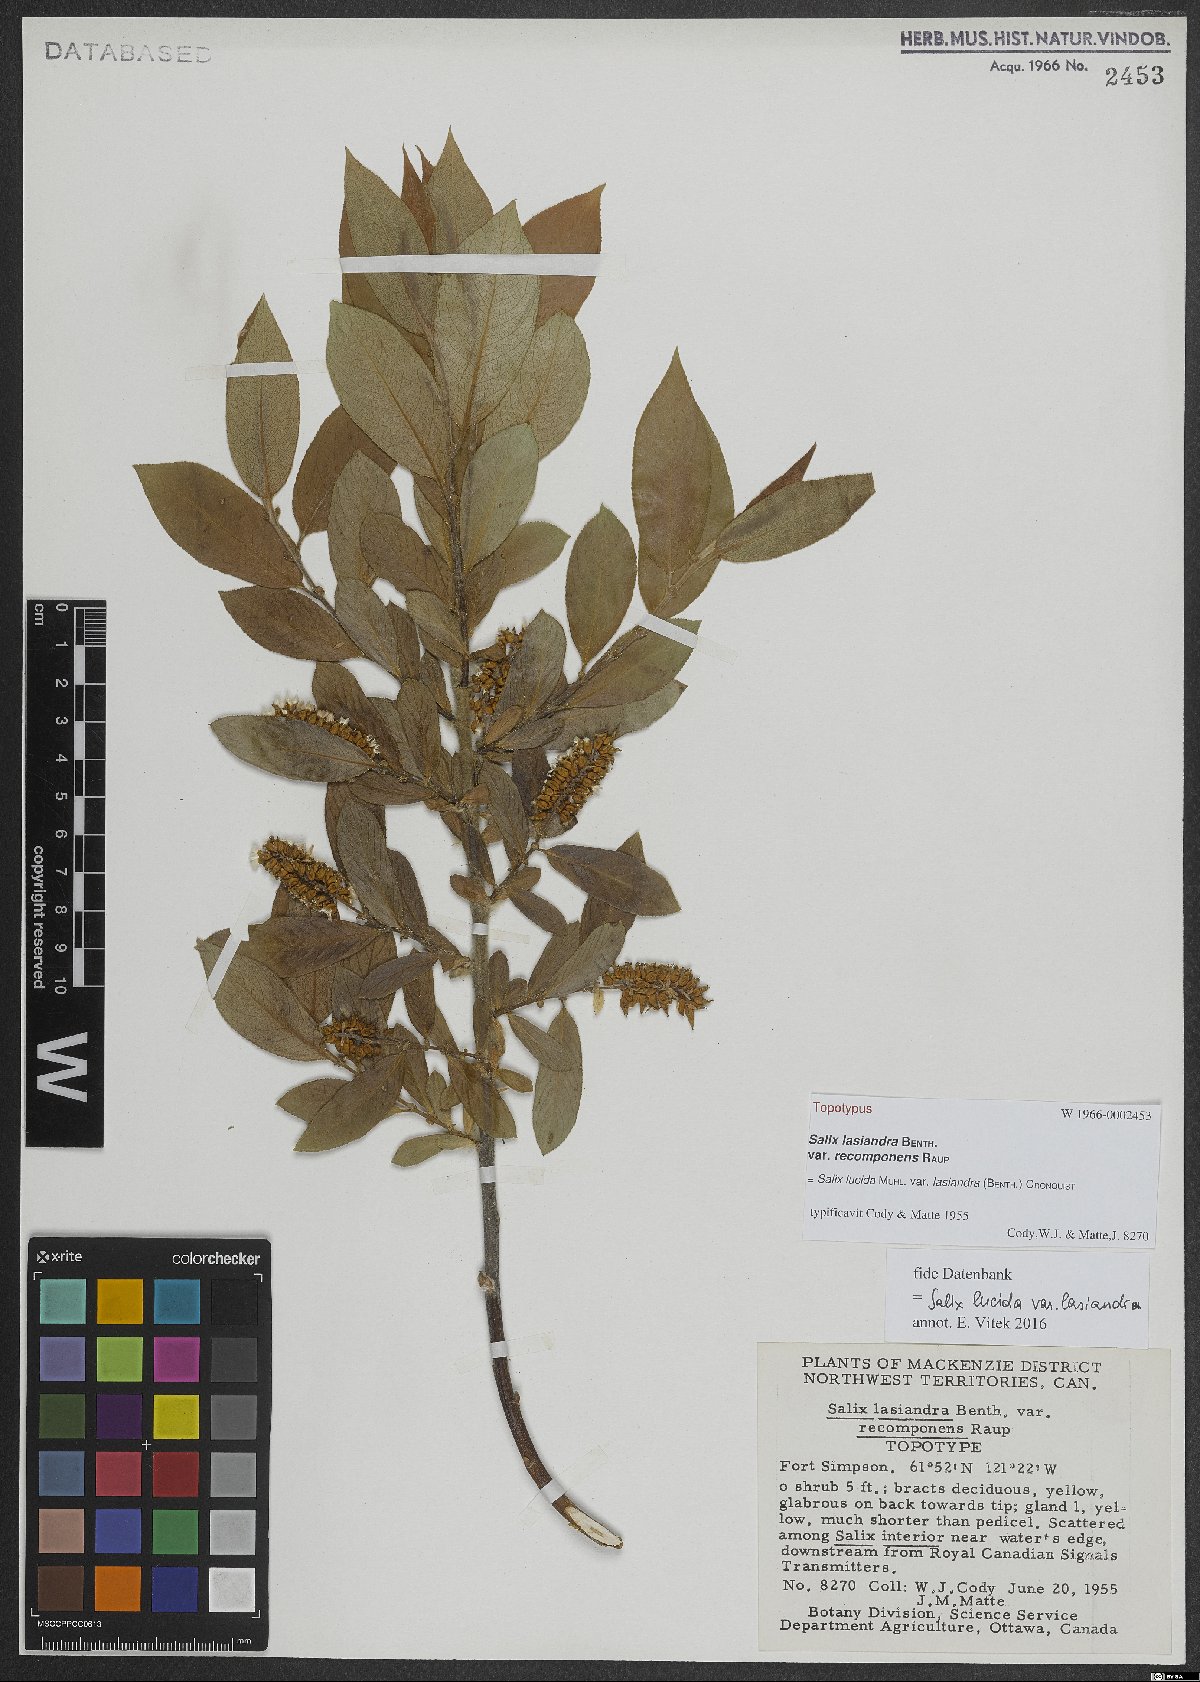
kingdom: Plantae
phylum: Tracheophyta
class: Magnoliopsida
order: Malpighiales
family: Salicaceae
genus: Salix
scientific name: Salix lucida
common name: Shining willow
